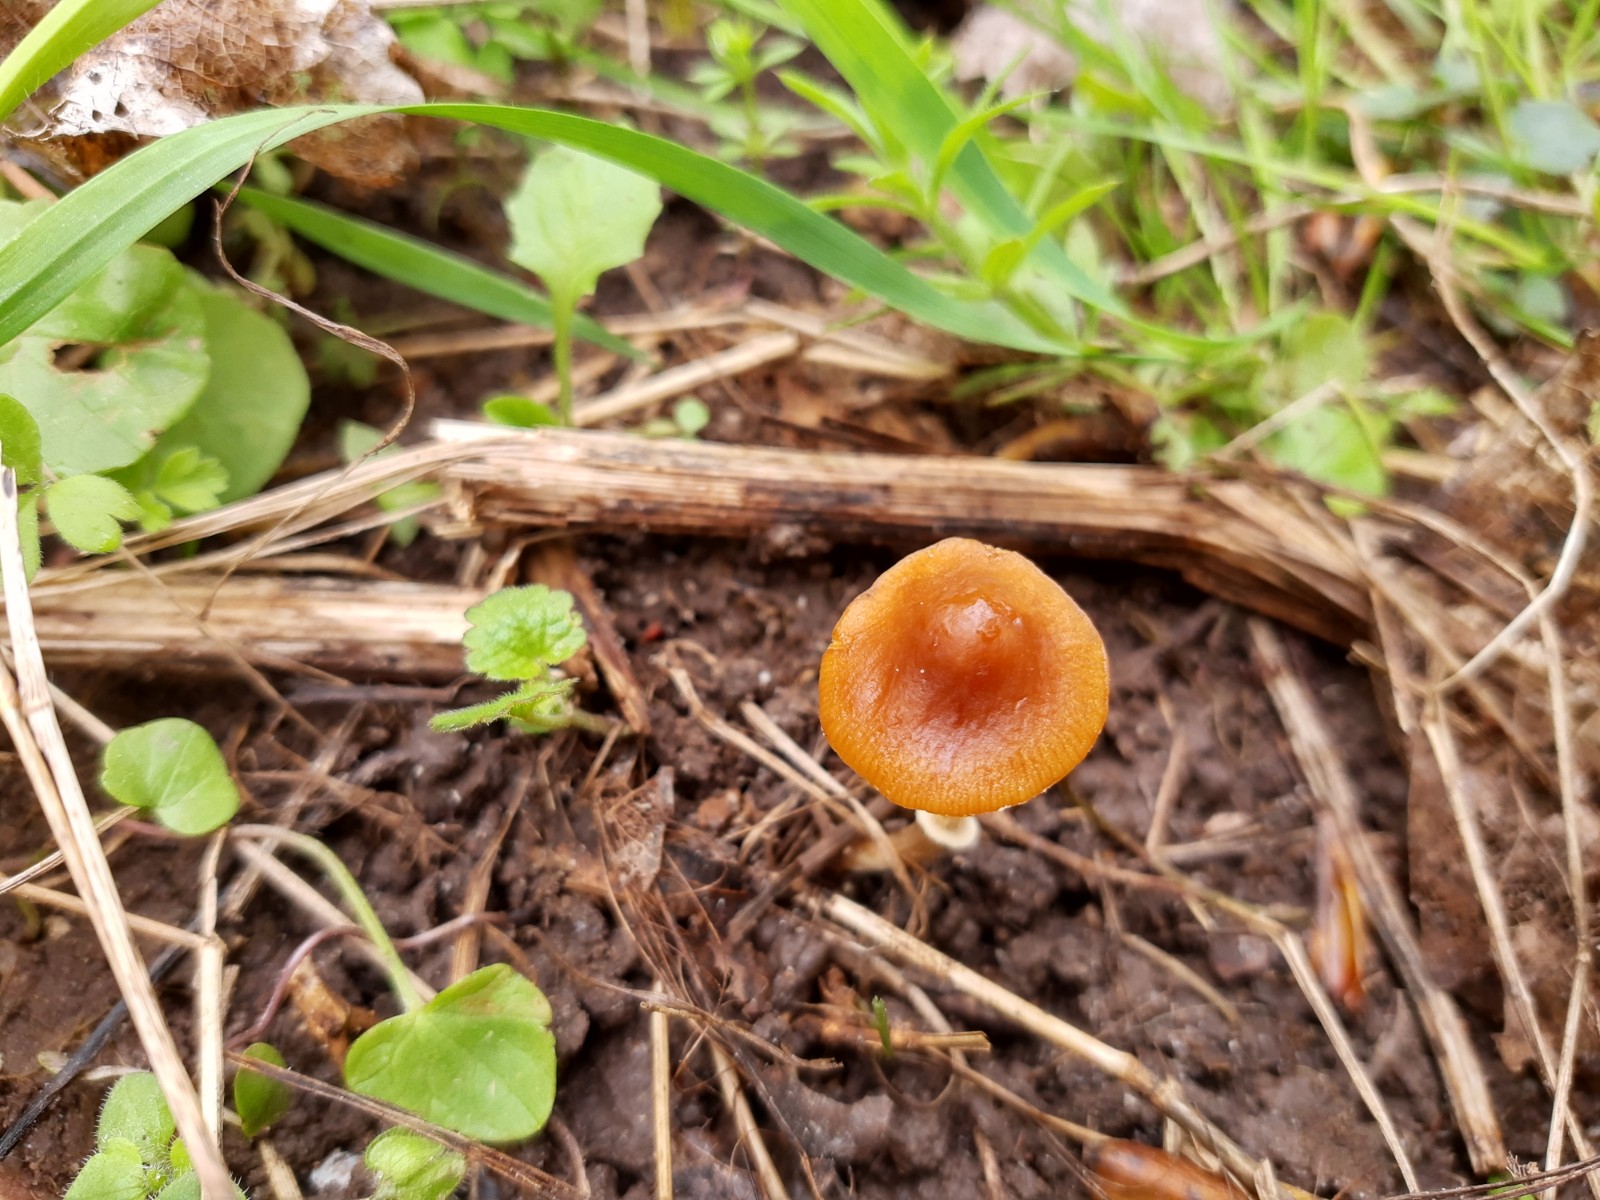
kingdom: Fungi
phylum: Basidiomycota
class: Agaricomycetes
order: Agaricales
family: Bolbitiaceae
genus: Conocybe
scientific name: Conocybe aporos
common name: tidlig dansehat
